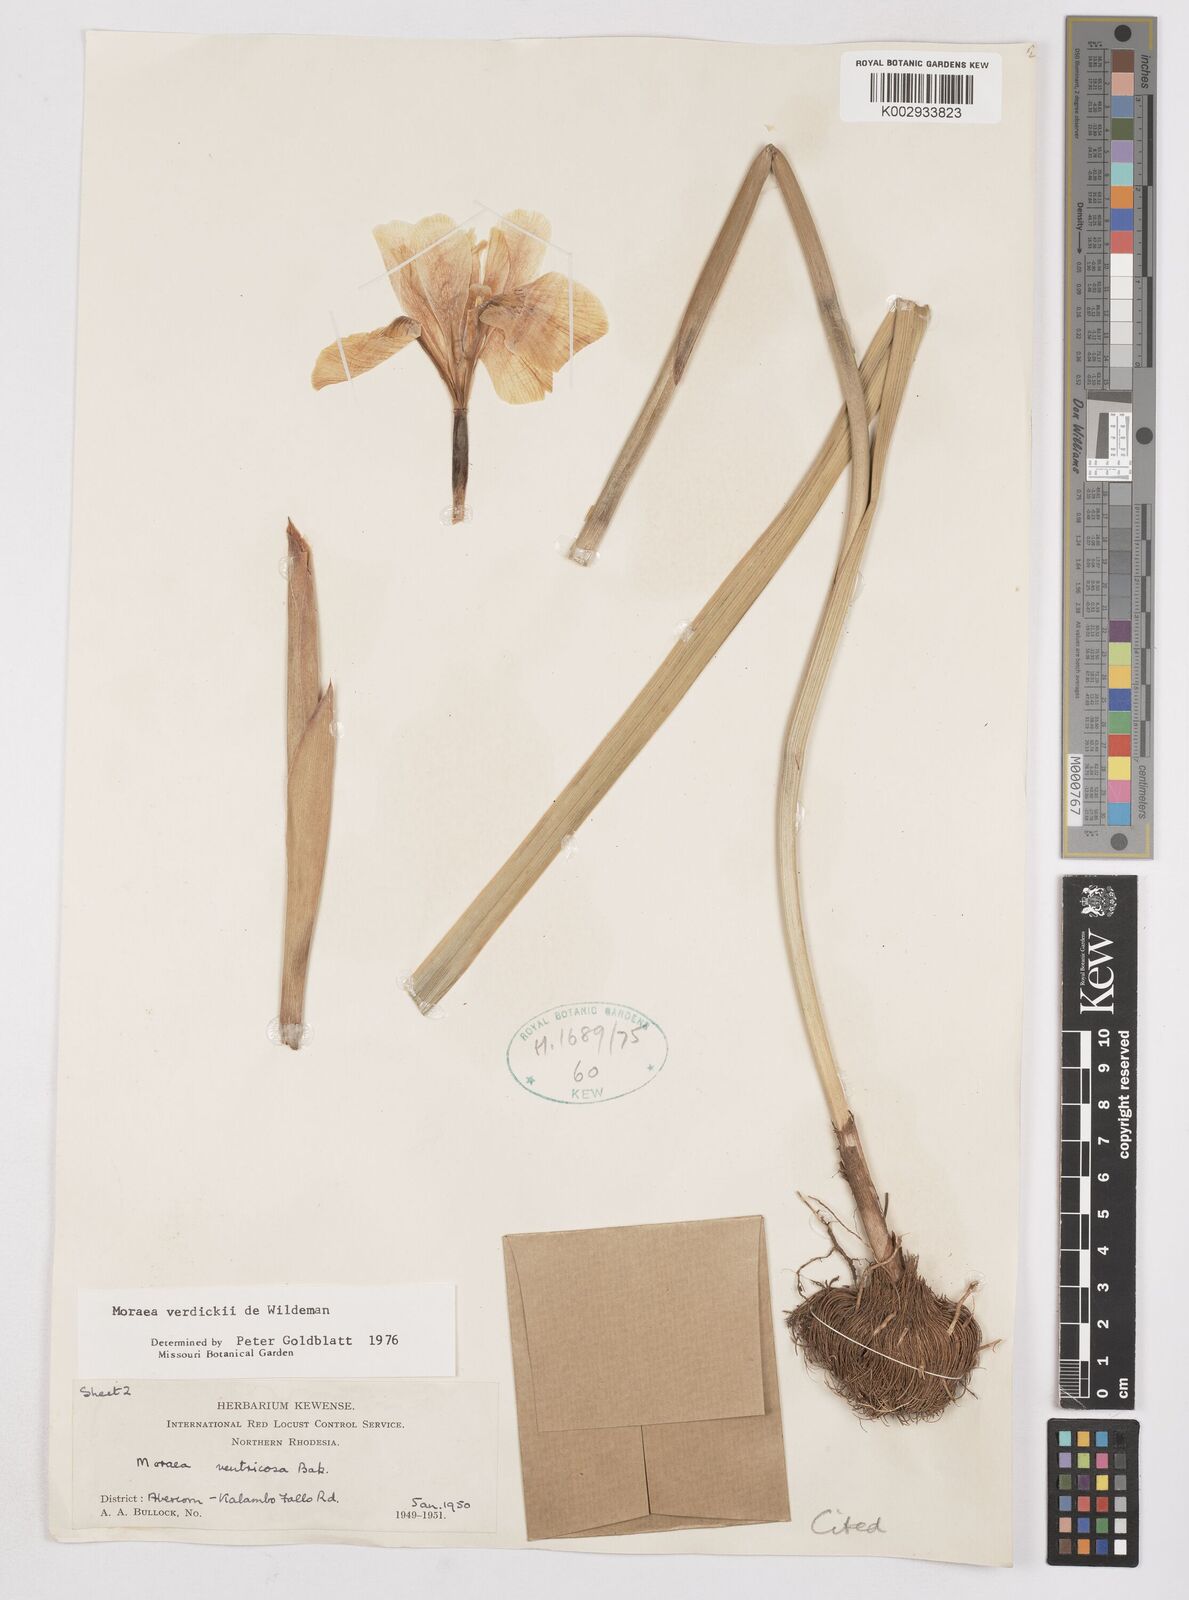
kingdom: Plantae
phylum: Tracheophyta
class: Liliopsida
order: Asparagales
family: Iridaceae
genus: Moraea
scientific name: Moraea verdickii
